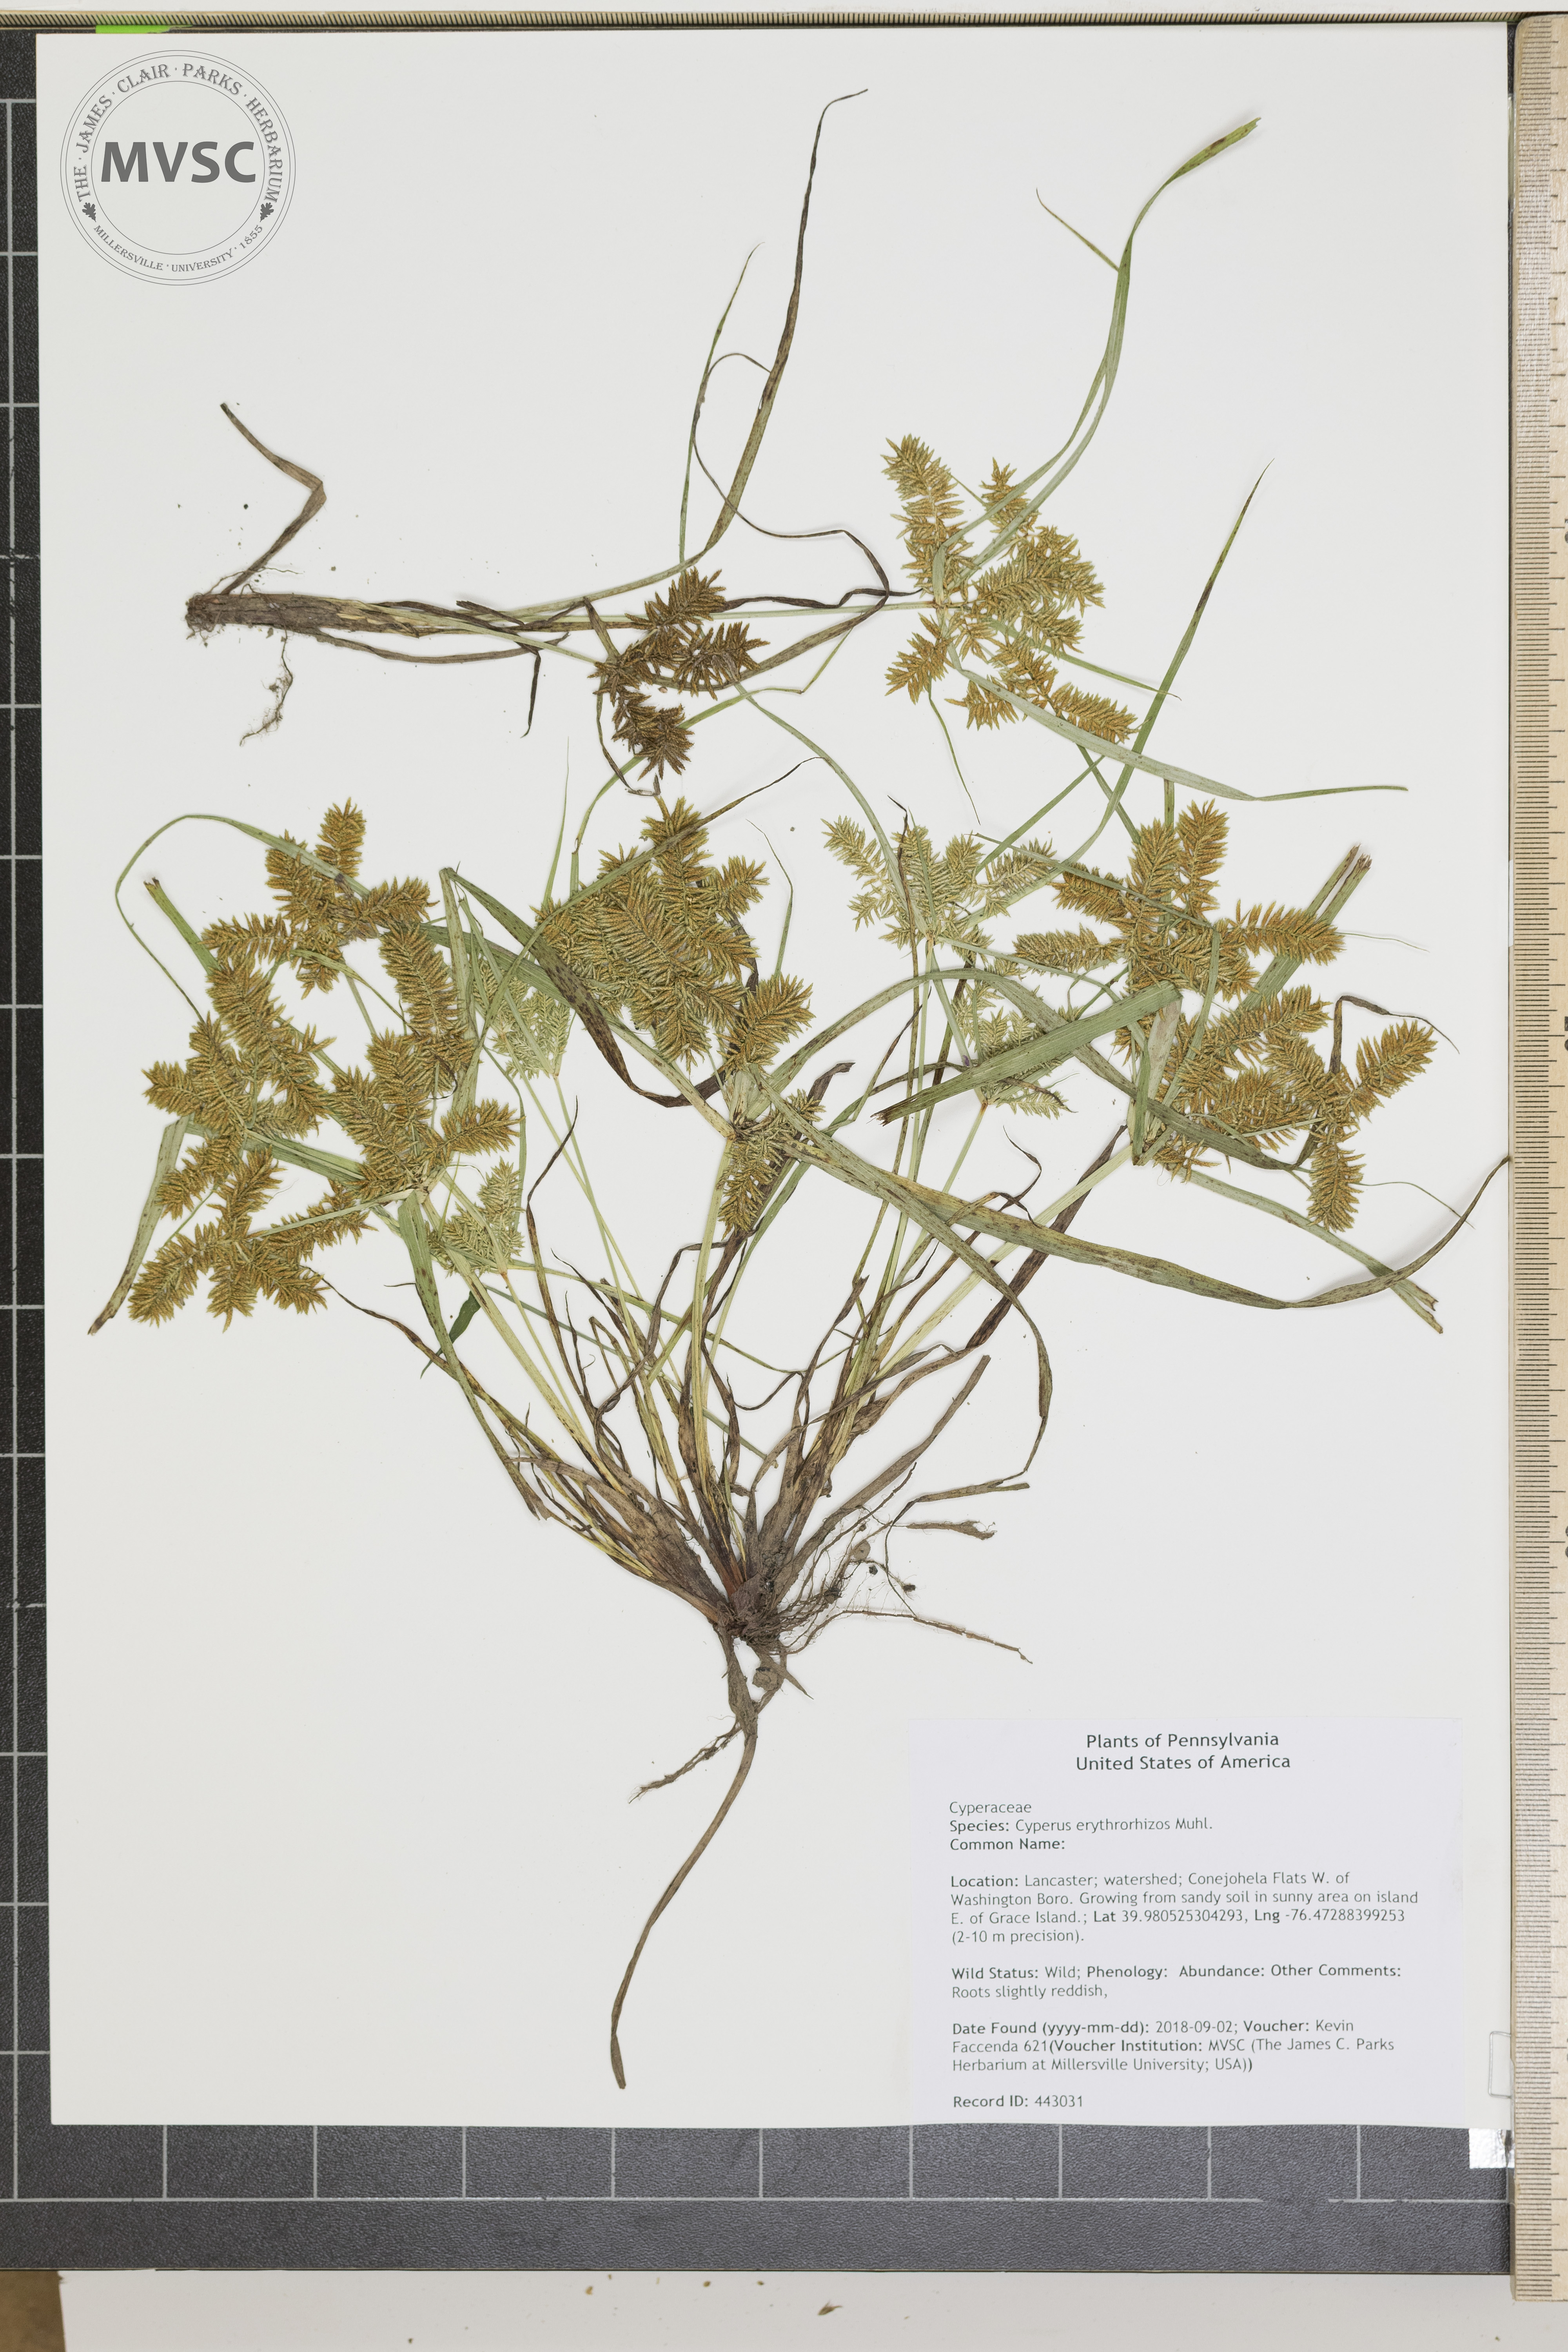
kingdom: Plantae
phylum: Tracheophyta
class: Liliopsida
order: Poales
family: Cyperaceae
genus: Cyperus
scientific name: Cyperus erythrorhizos
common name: Red-root flat sedge
